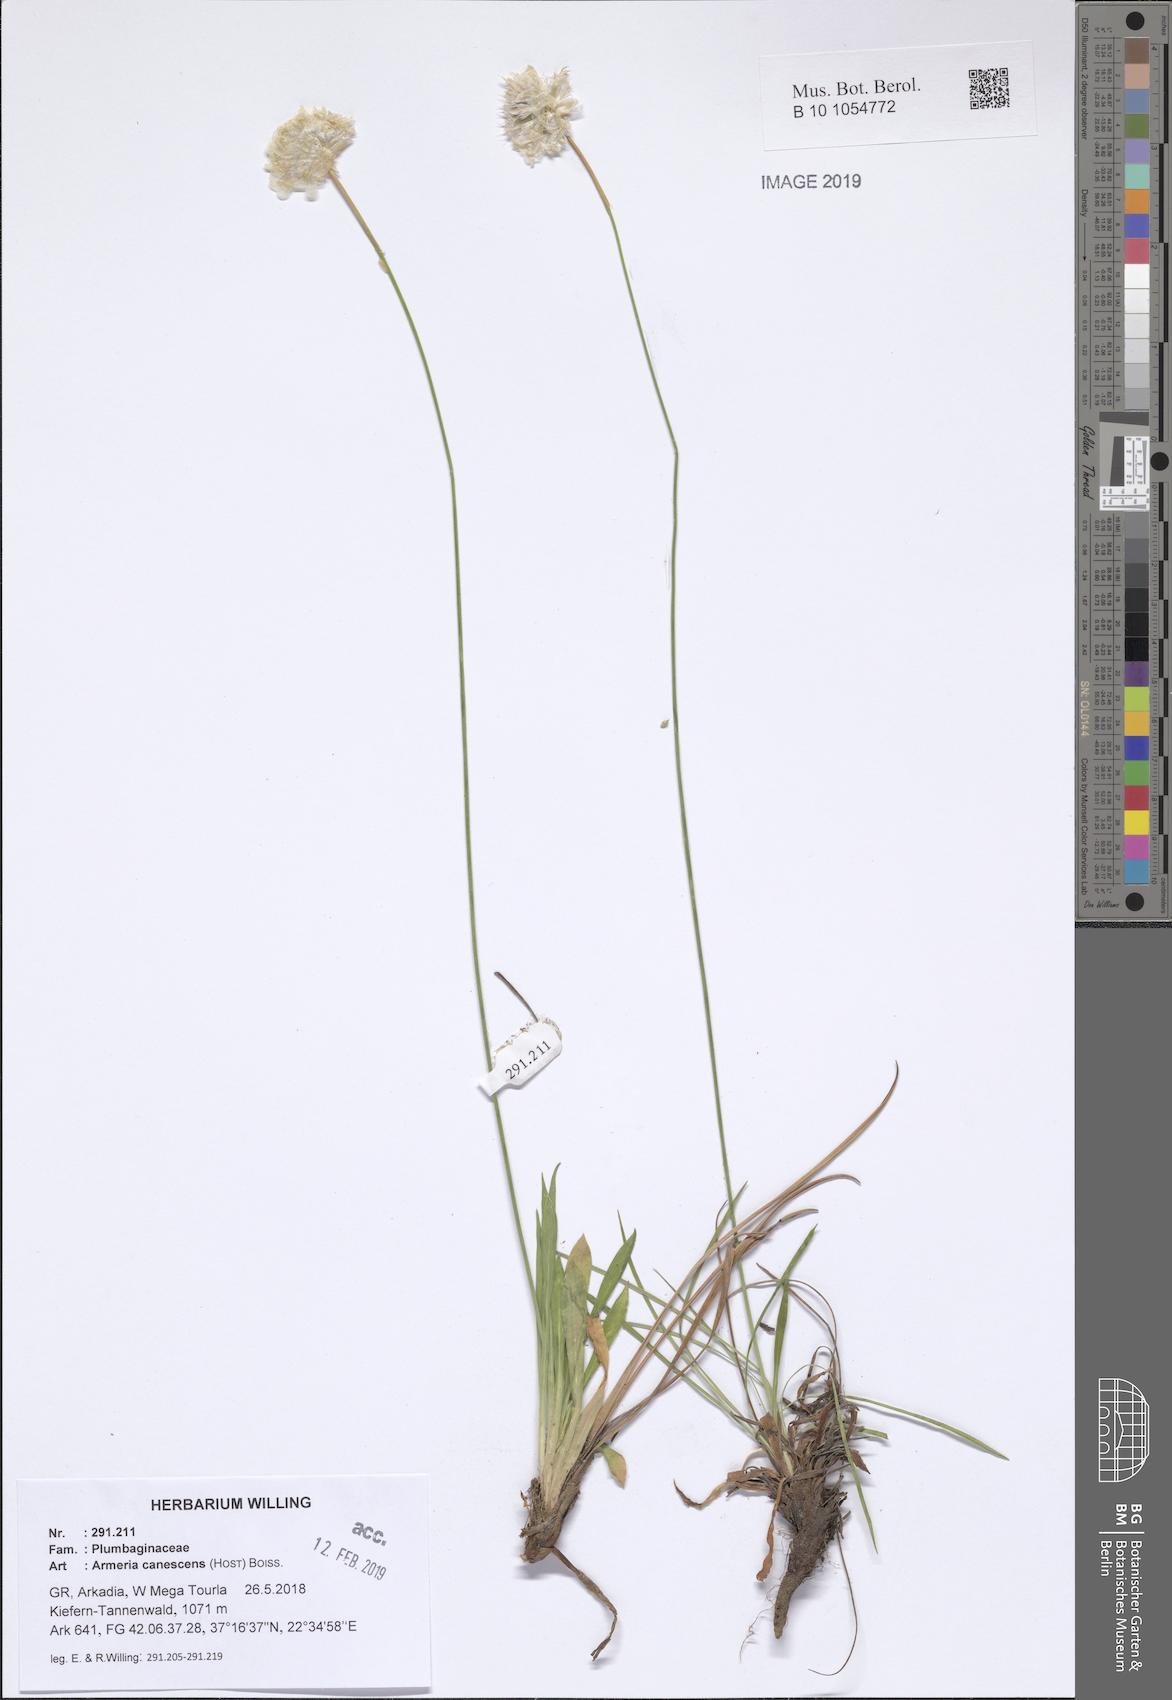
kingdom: Plantae
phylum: Tracheophyta
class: Magnoliopsida
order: Caryophyllales
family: Plumbaginaceae
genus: Armeria
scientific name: Armeria canescens
